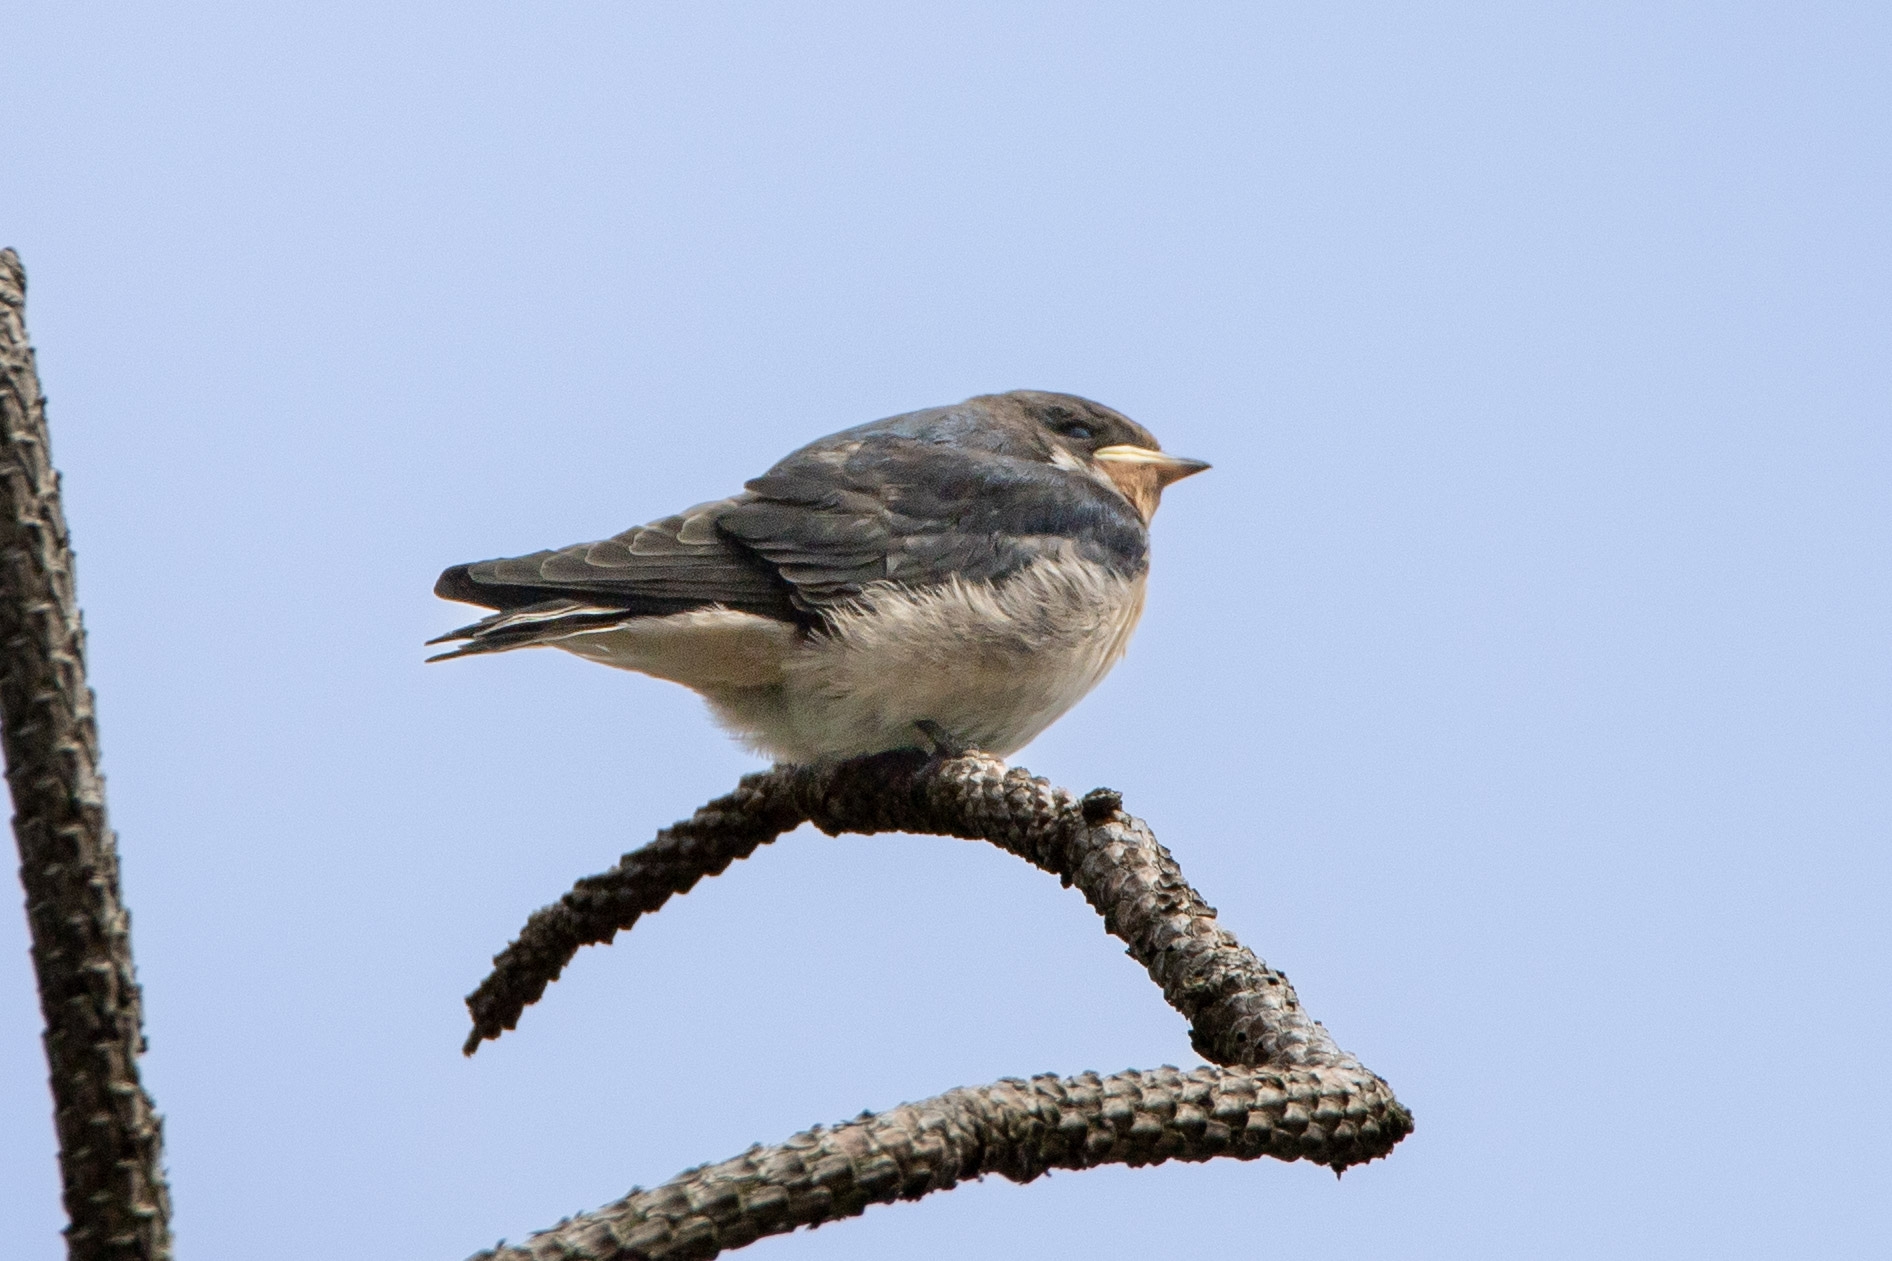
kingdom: Animalia
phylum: Chordata
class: Aves
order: Passeriformes
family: Hirundinidae
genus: Hirundo
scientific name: Hirundo rustica
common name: Landsvale
